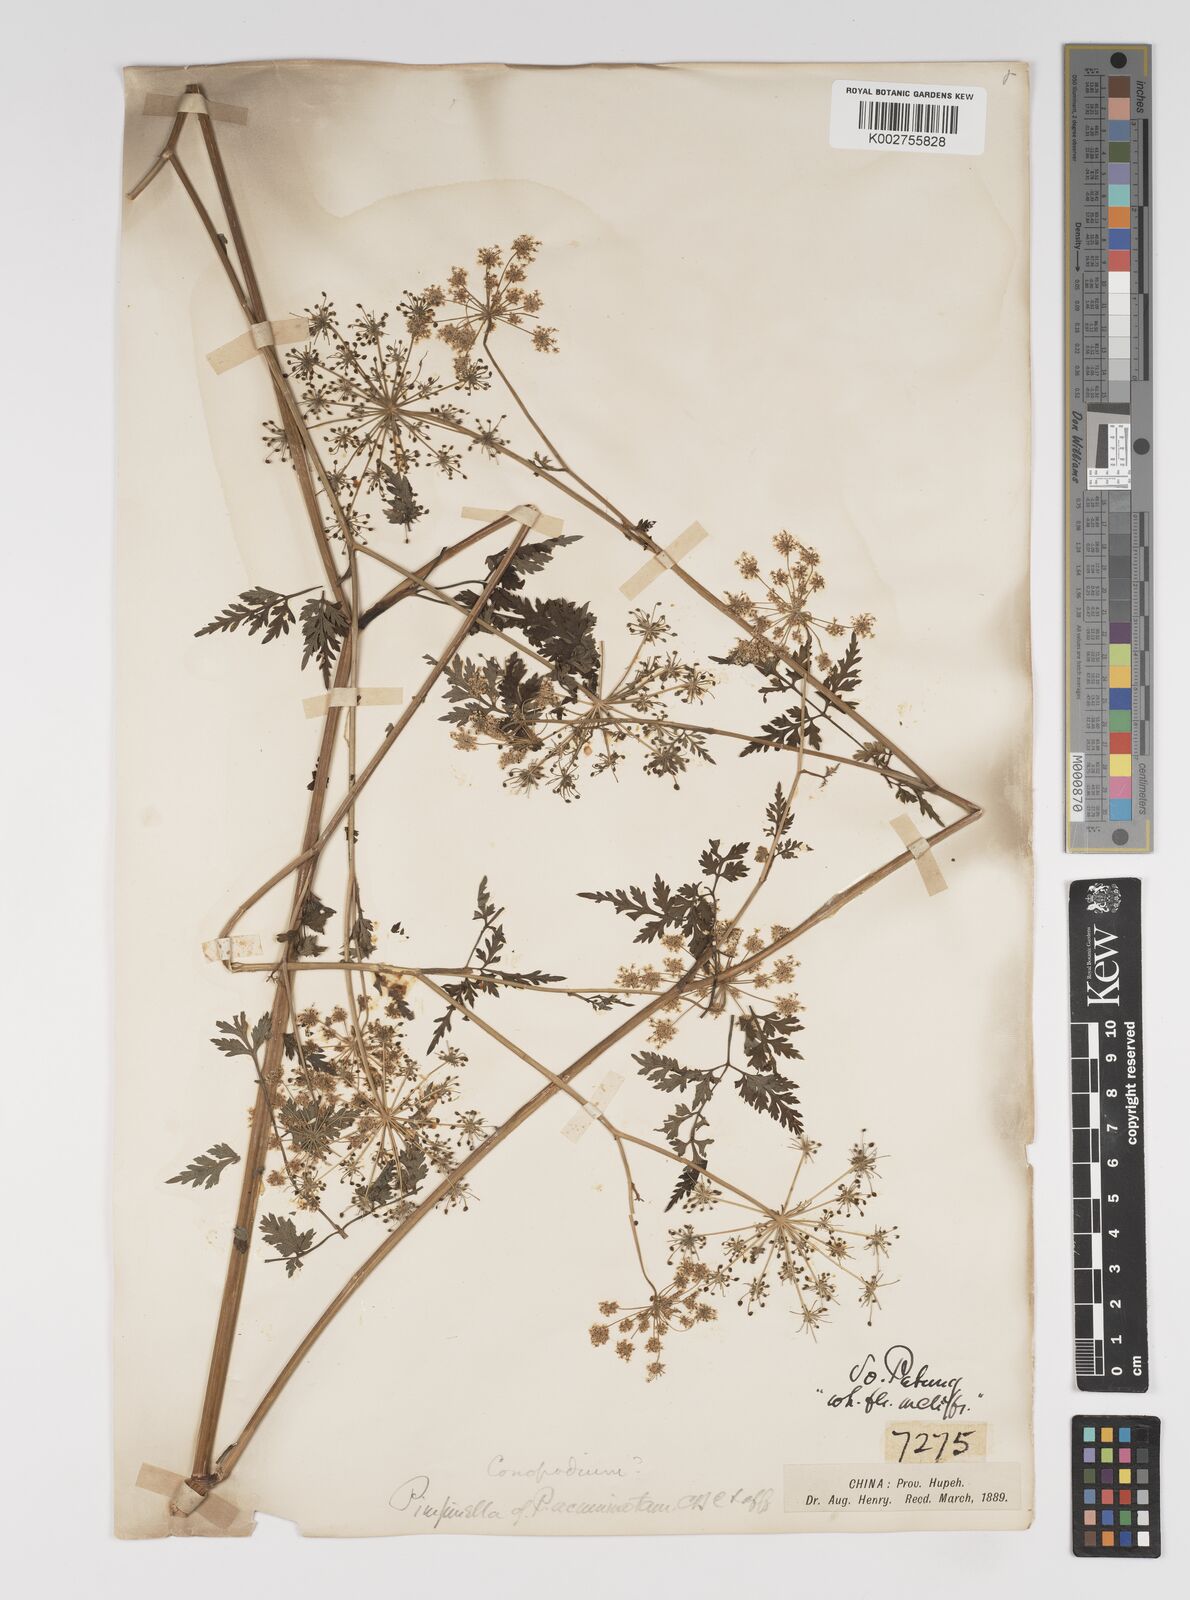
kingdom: Plantae
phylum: Tracheophyta
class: Magnoliopsida
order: Apiales
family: Apiaceae
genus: Pimpinella
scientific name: Pimpinella
